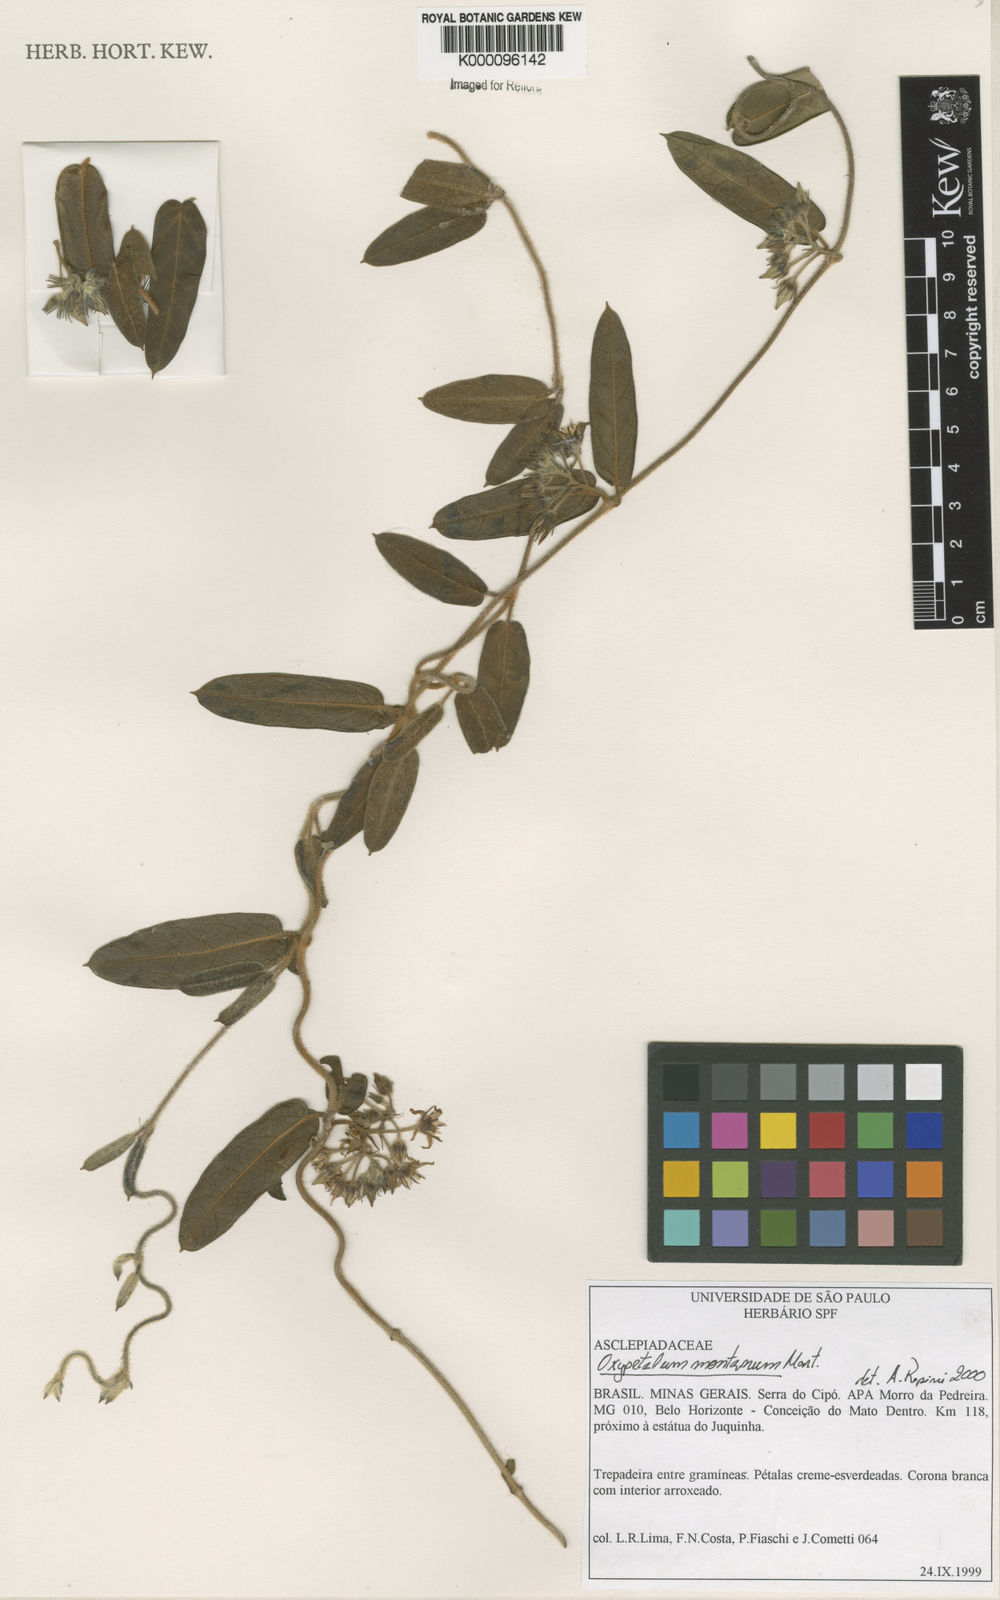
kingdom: Plantae
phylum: Tracheophyta
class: Magnoliopsida
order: Gentianales
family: Apocynaceae
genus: Oxypetalum
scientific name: Oxypetalum montanum
